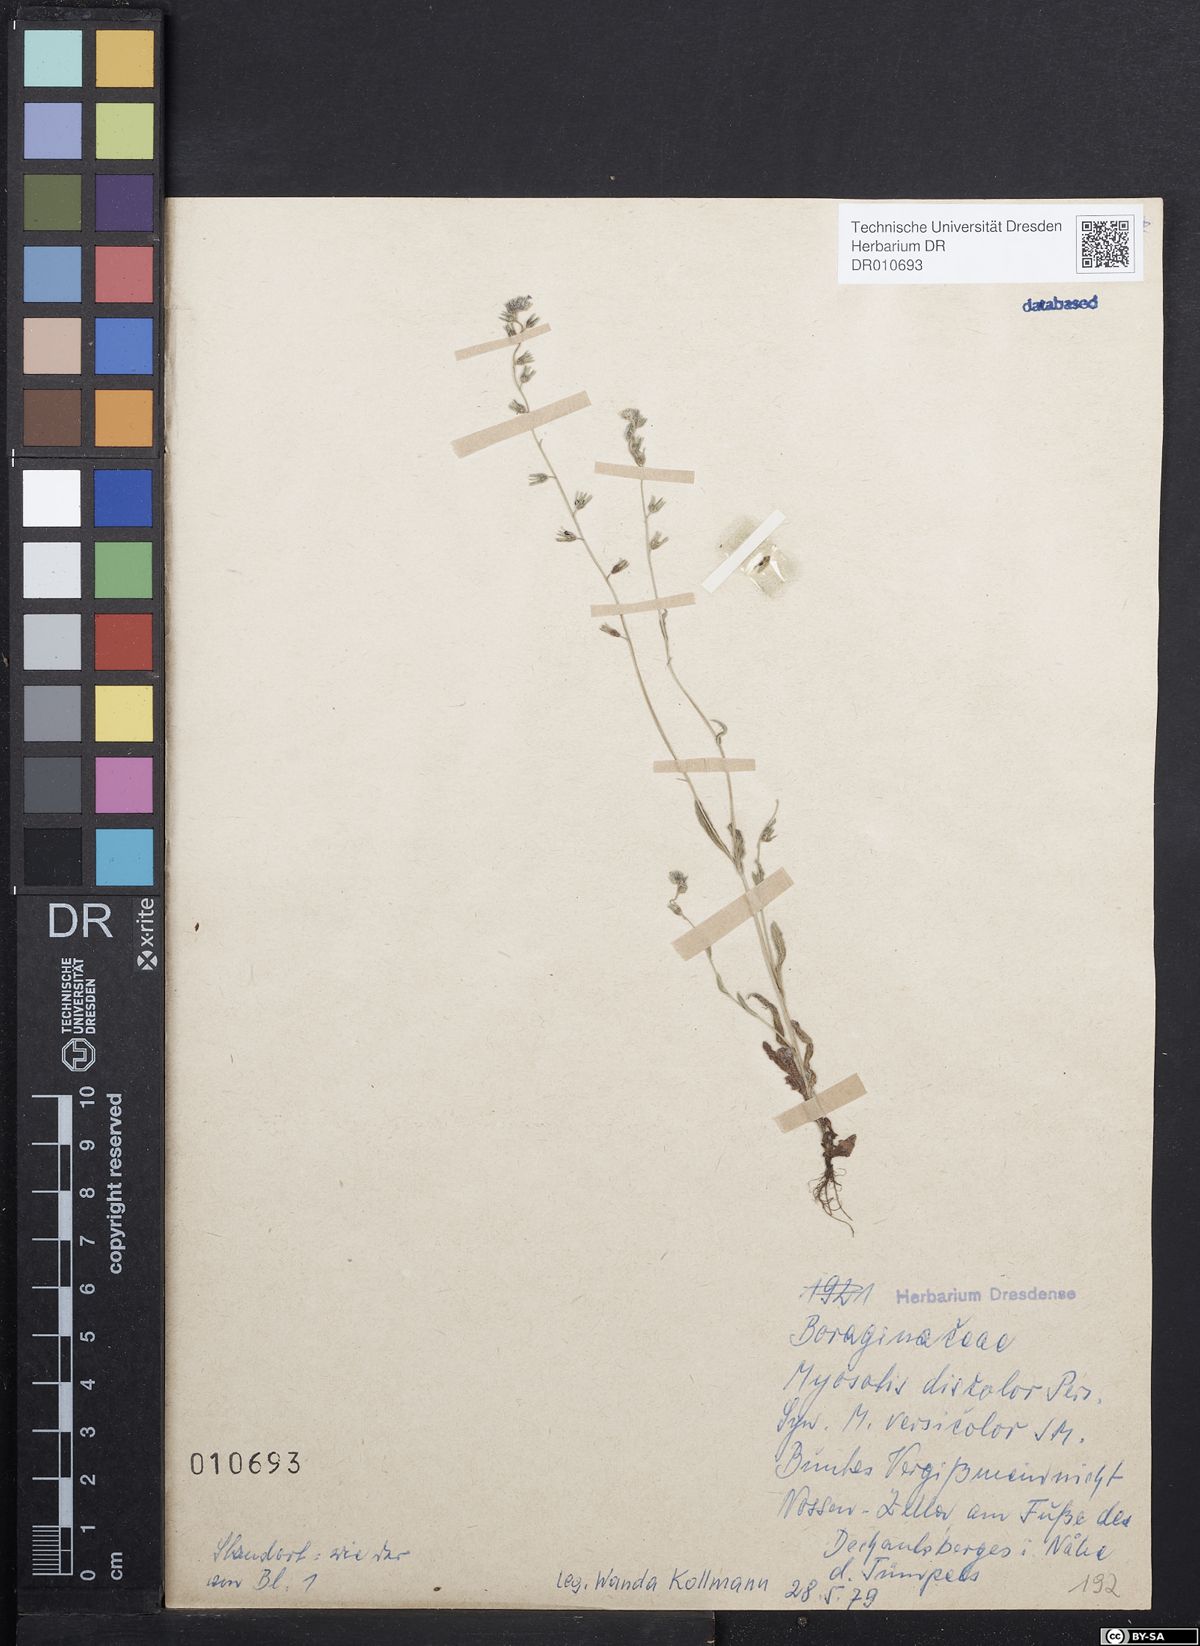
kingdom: Plantae
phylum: Tracheophyta
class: Magnoliopsida
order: Boraginales
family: Boraginaceae
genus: Myosotis
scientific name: Myosotis discolor
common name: Changing forget-me-not
